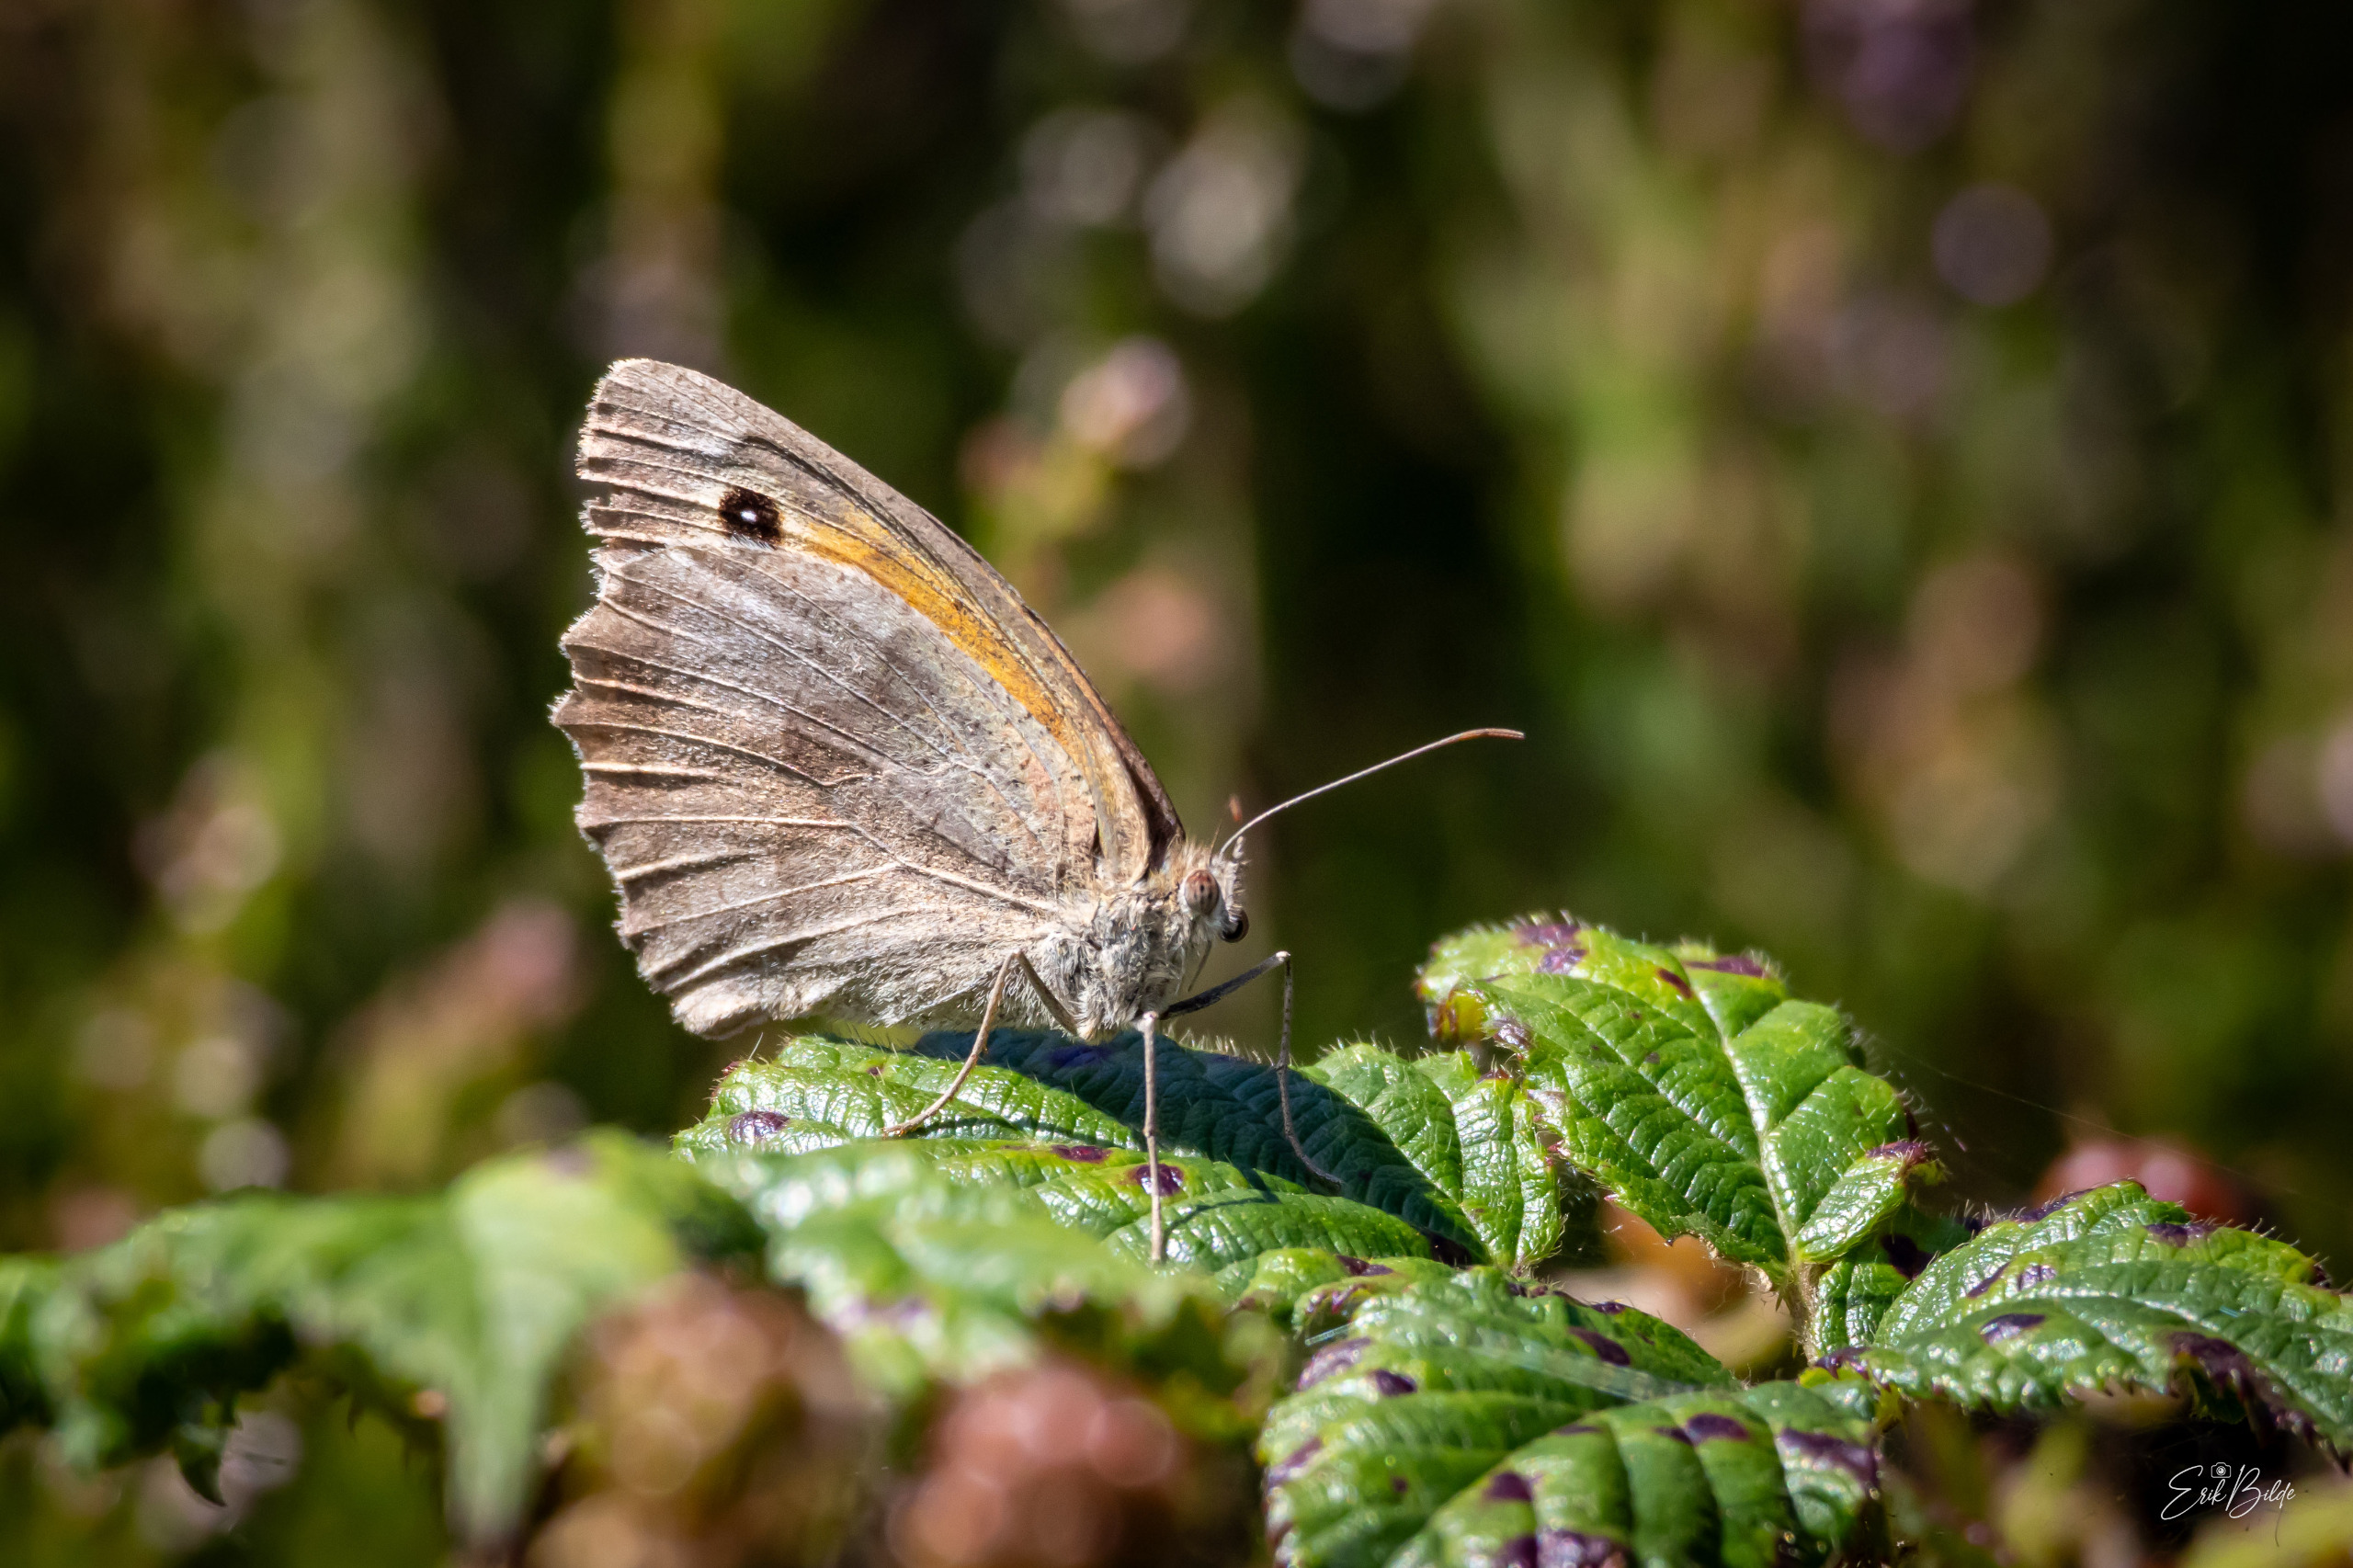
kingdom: Animalia
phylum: Arthropoda
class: Insecta
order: Lepidoptera
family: Nymphalidae
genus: Maniola
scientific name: Maniola jurtina
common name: Græsrandøje
